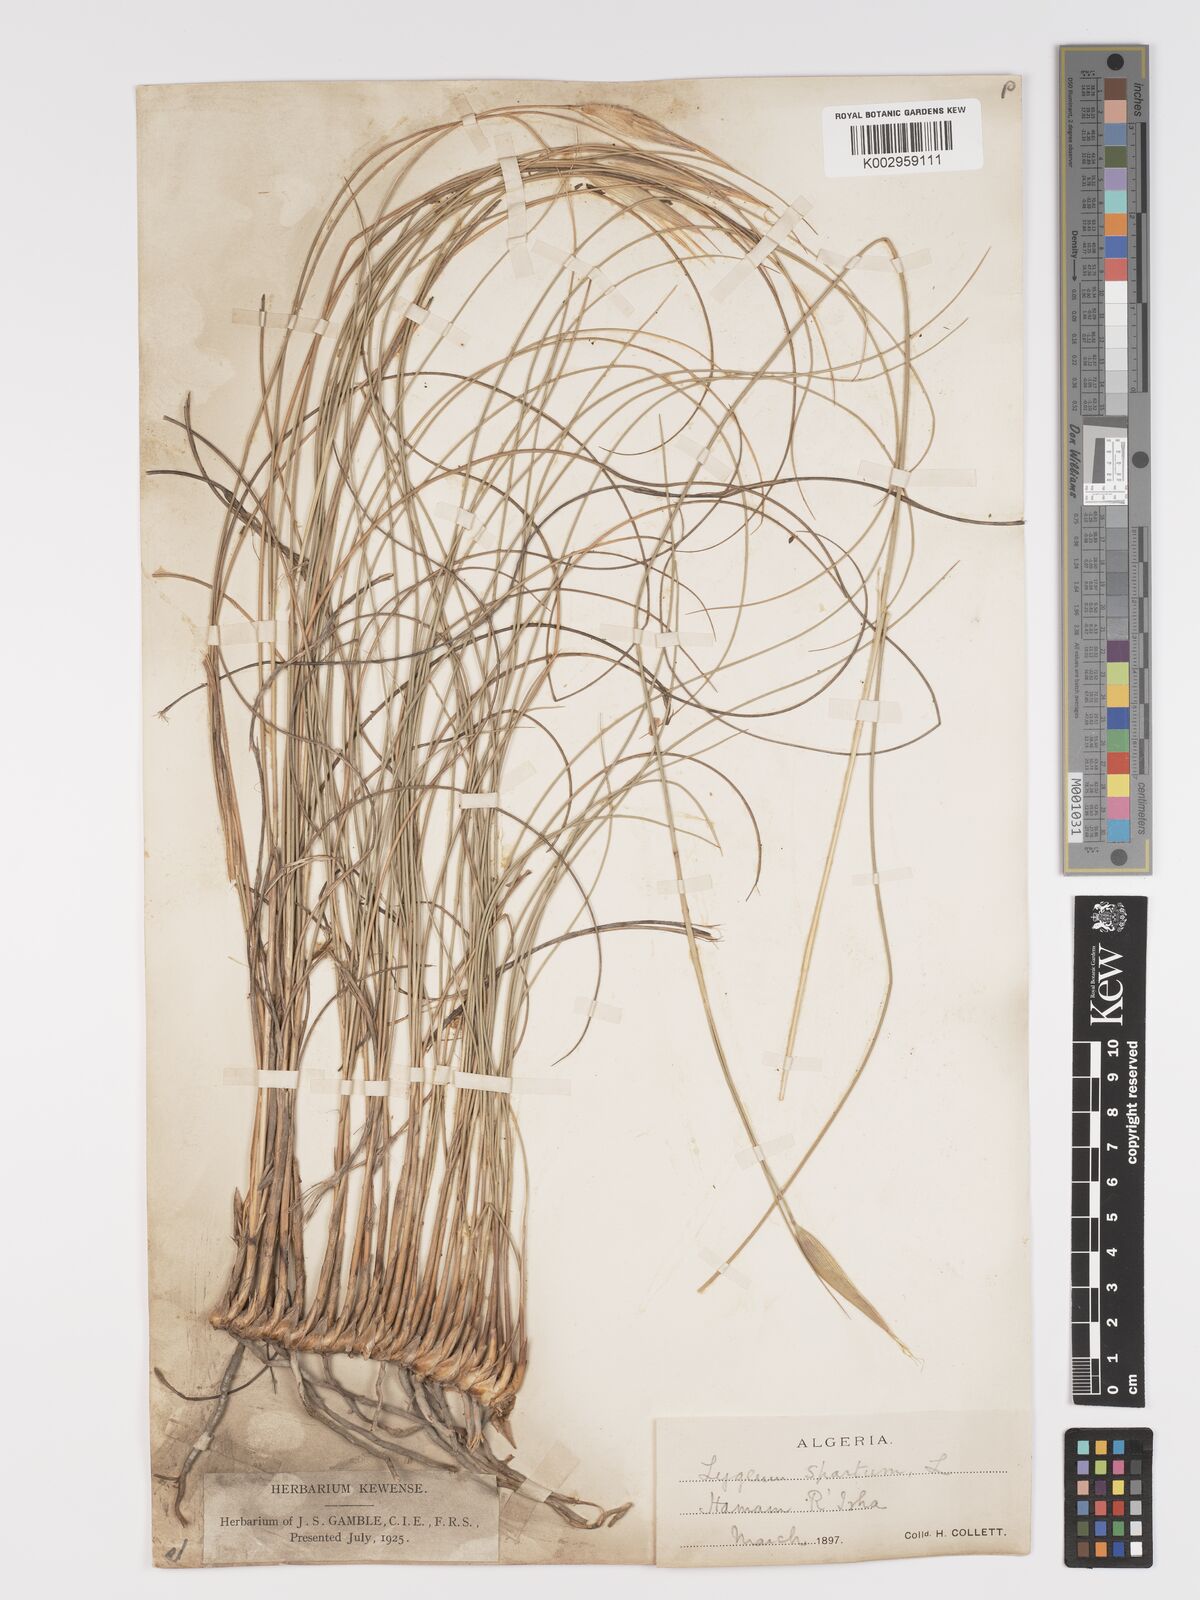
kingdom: Plantae
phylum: Tracheophyta
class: Liliopsida
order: Poales
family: Poaceae
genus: Lygeum
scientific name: Lygeum spartum
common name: Albardine
